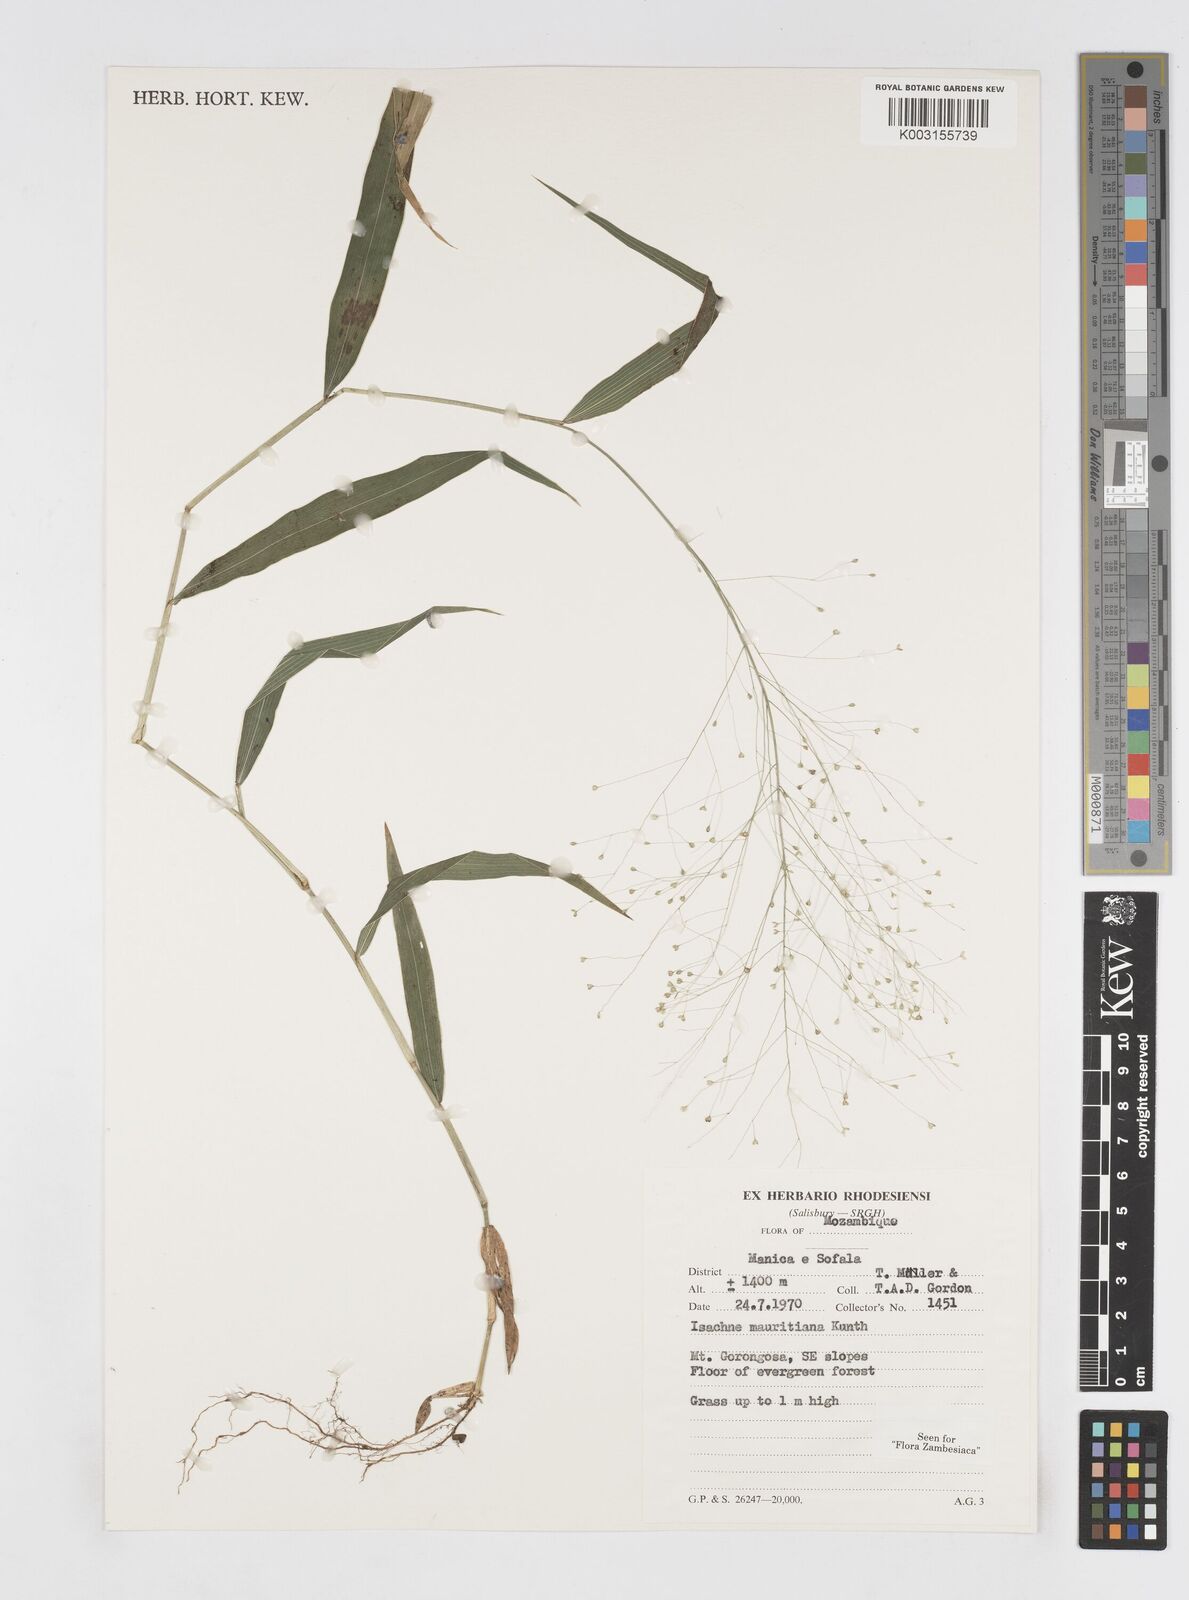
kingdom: Plantae
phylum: Tracheophyta
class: Liliopsida
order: Poales
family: Poaceae
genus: Isachne
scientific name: Isachne mauritiana
